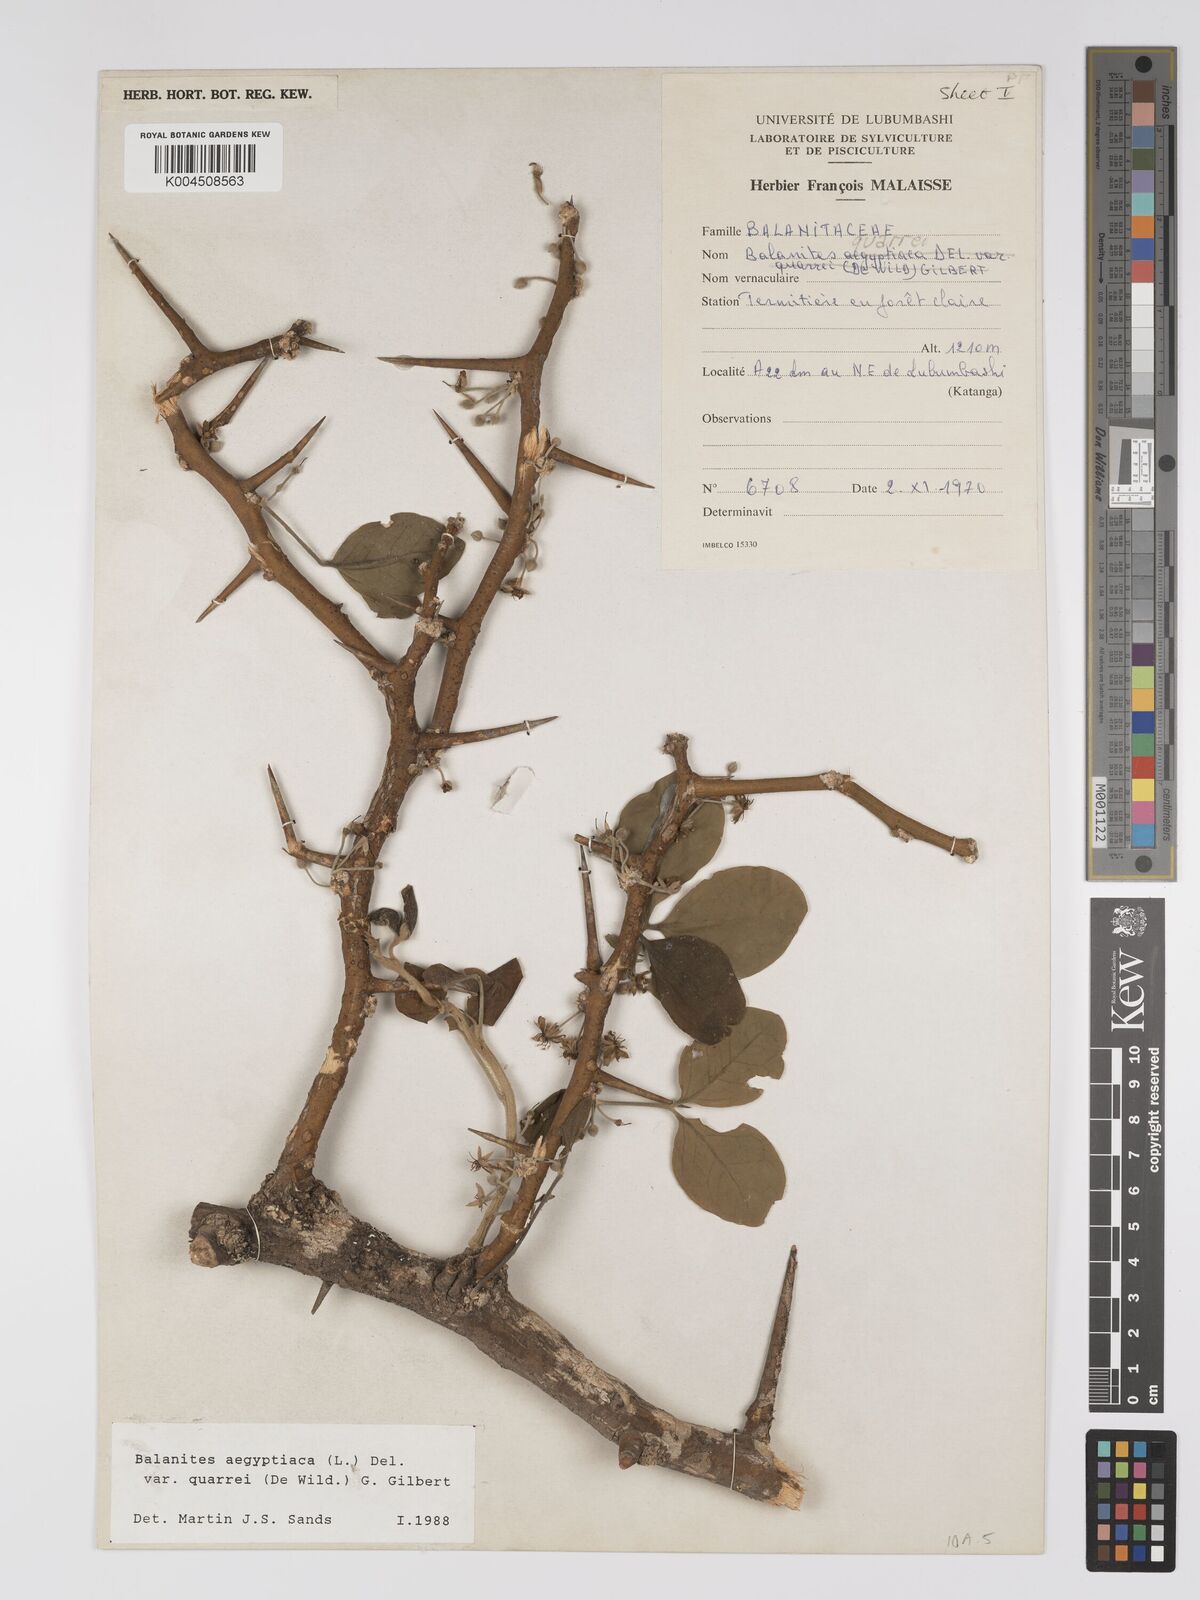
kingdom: Plantae
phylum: Tracheophyta
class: Magnoliopsida
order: Zygophyllales
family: Zygophyllaceae
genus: Balanites
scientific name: Balanites aegyptiaca
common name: Balanites
